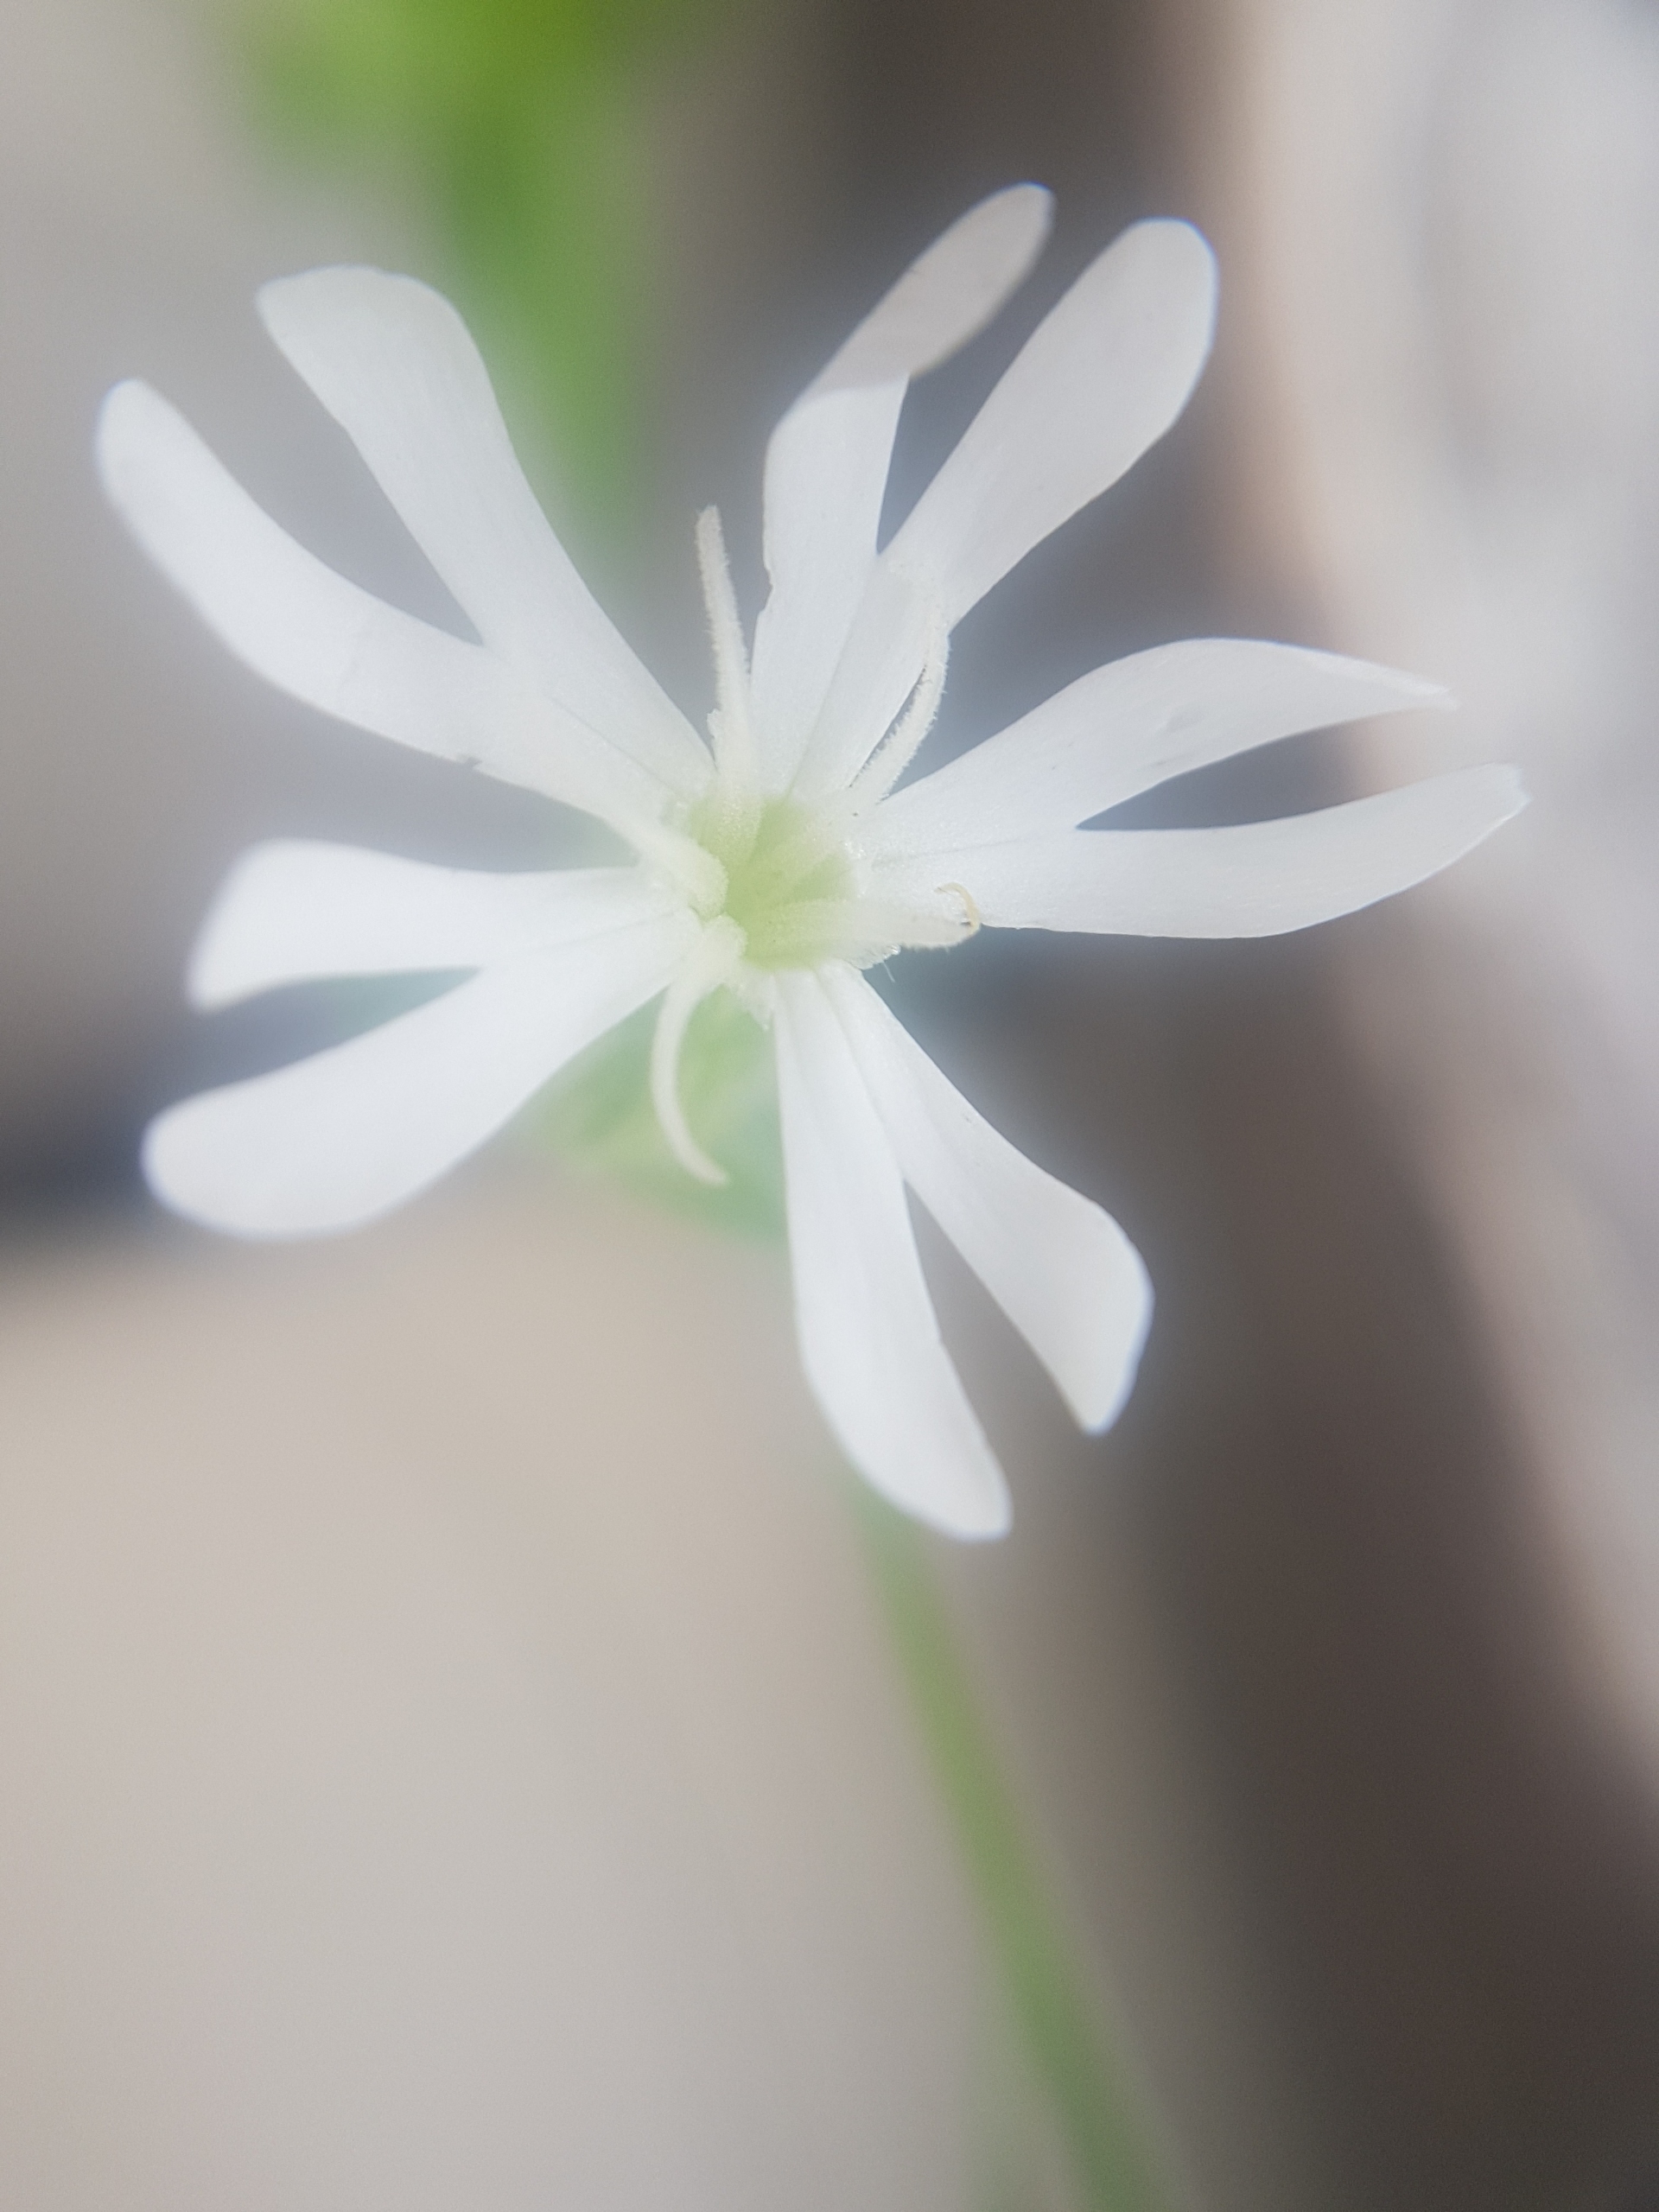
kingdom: Plantae
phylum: Tracheophyta
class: Magnoliopsida
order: Caryophyllales
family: Caryophyllaceae
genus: Silene
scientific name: Silene latifolia
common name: Aftenpragtstjerne
